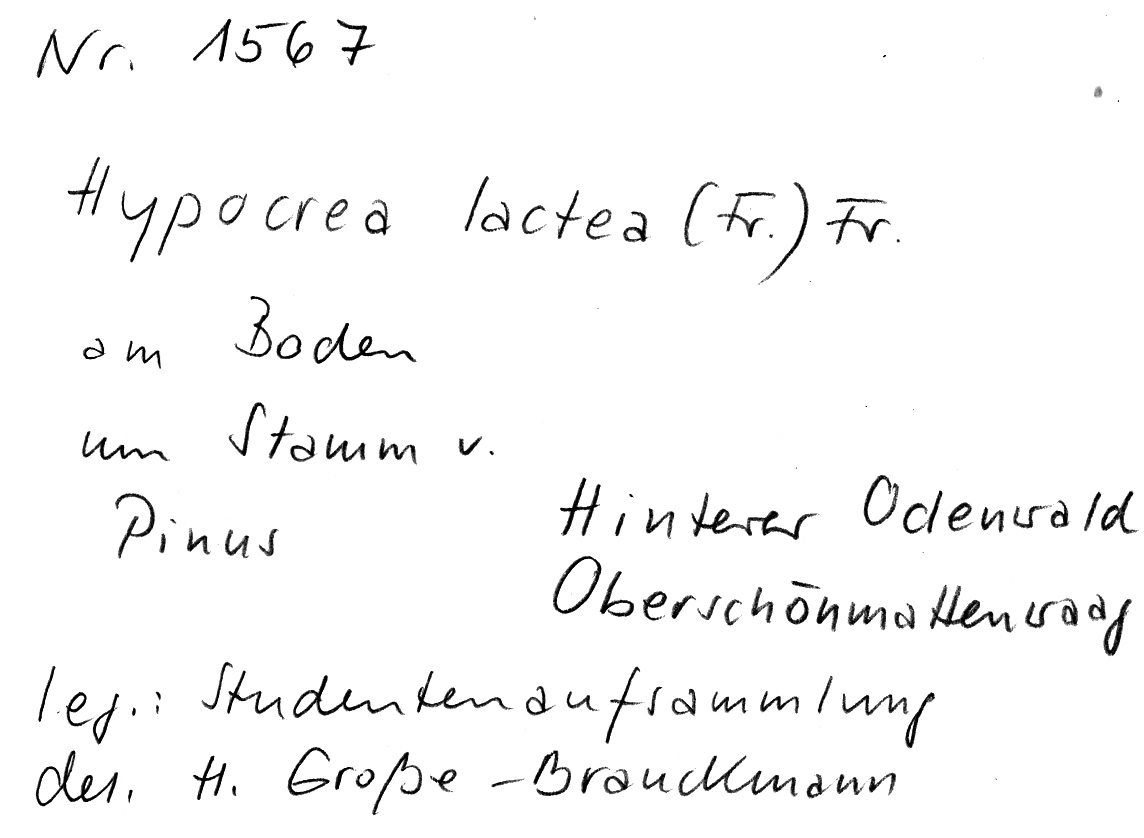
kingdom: Plantae
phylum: Tracheophyta
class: Pinopsida
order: Pinales
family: Pinaceae
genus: Pinus
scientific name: Pinus
